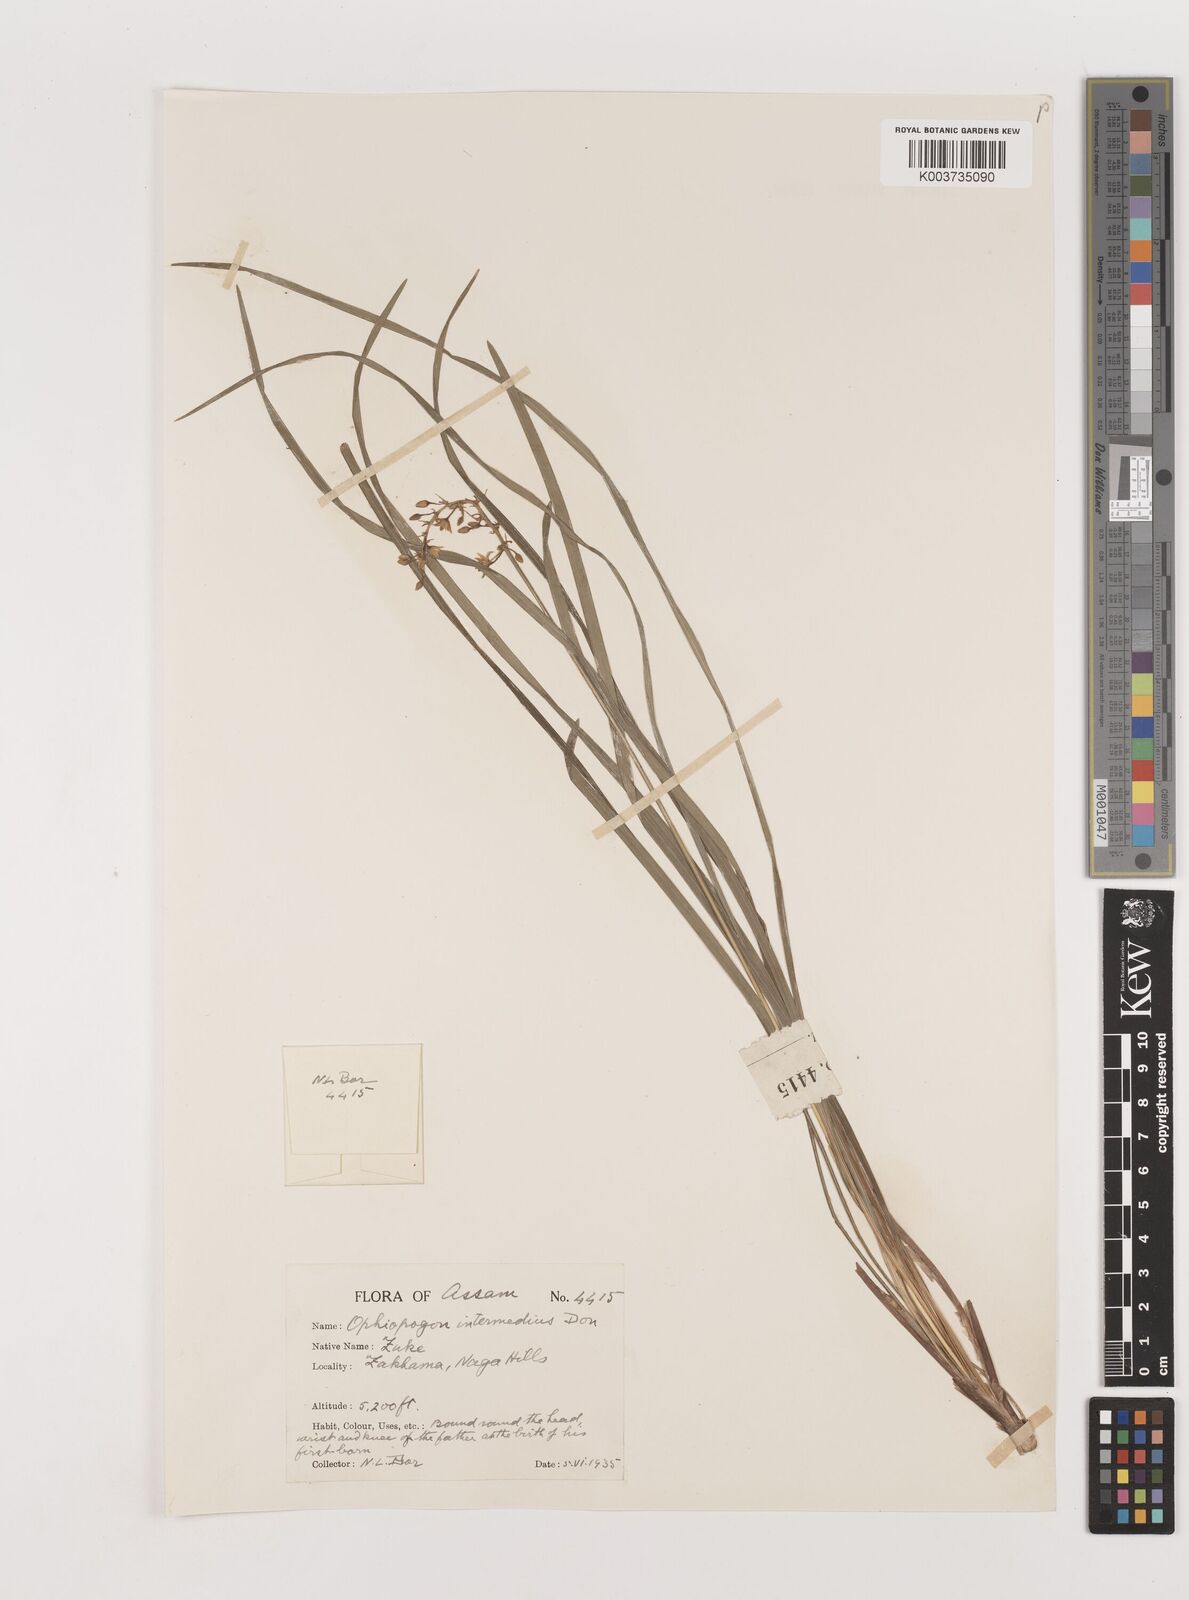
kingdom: Plantae
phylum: Tracheophyta
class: Liliopsida
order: Asparagales
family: Asparagaceae
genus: Ophiopogon
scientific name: Ophiopogon
